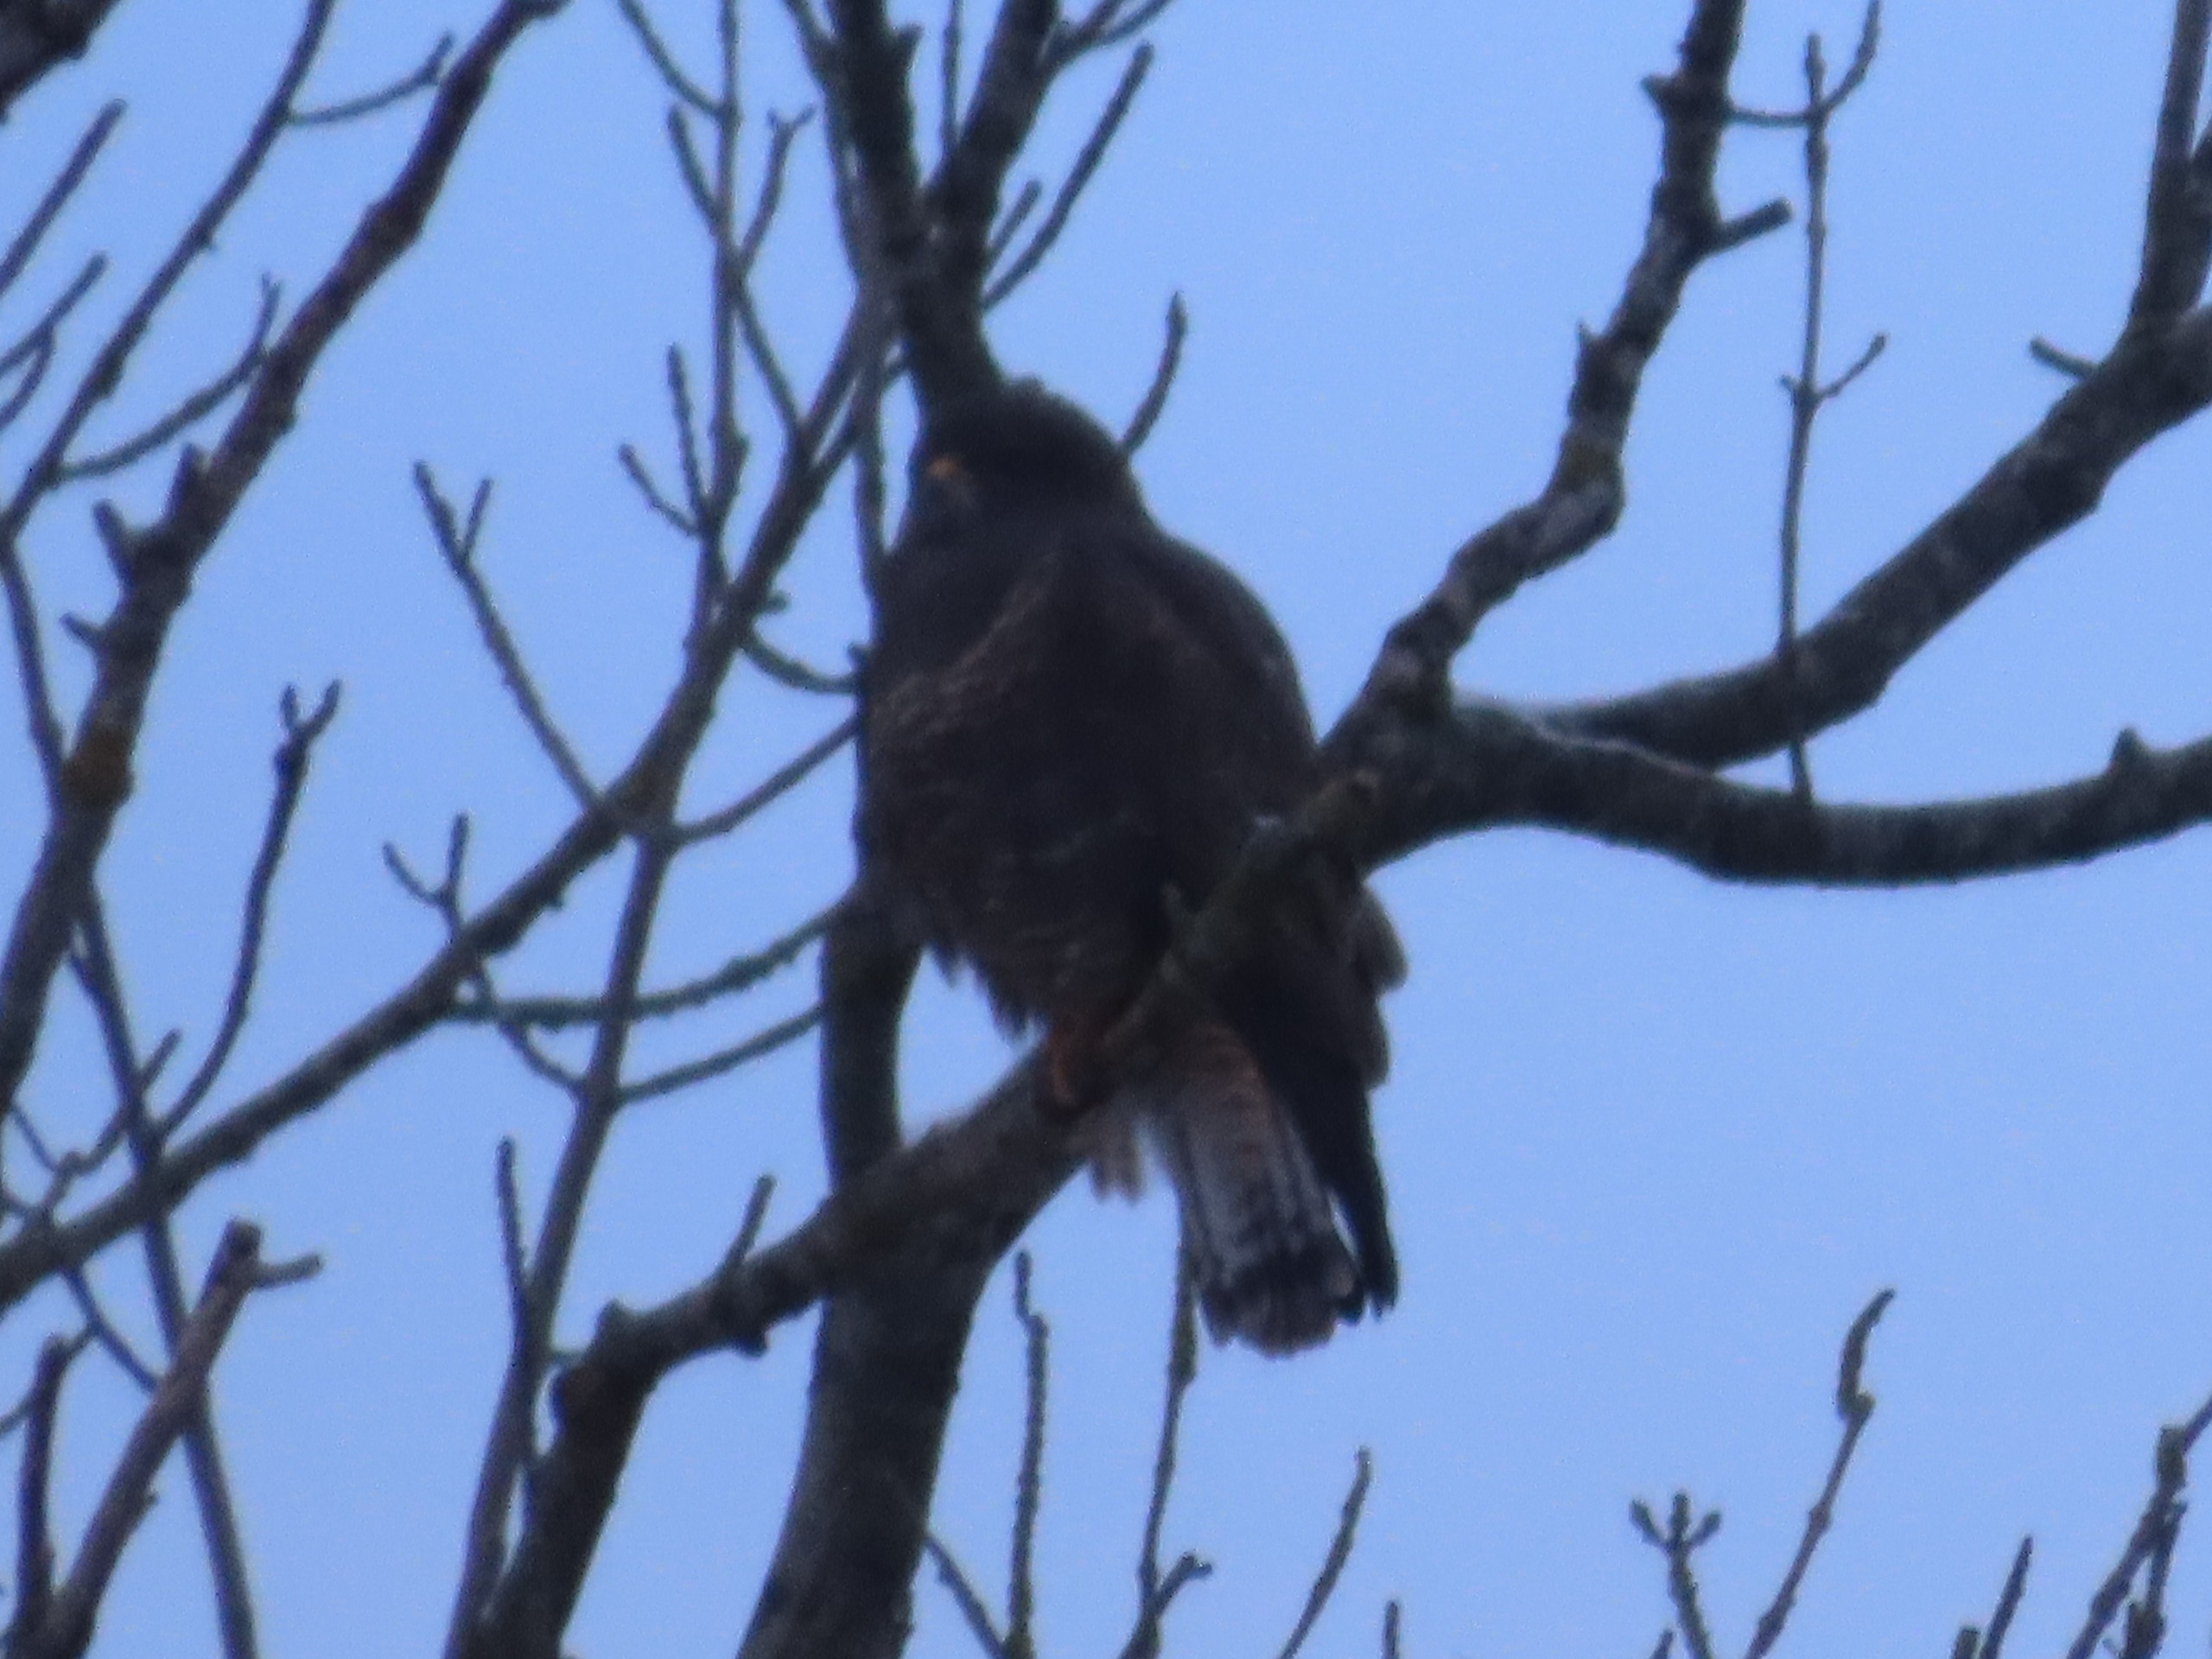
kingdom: Animalia
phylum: Chordata
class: Aves
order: Accipitriformes
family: Accipitridae
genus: Buteo
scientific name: Buteo buteo
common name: Musvåge
